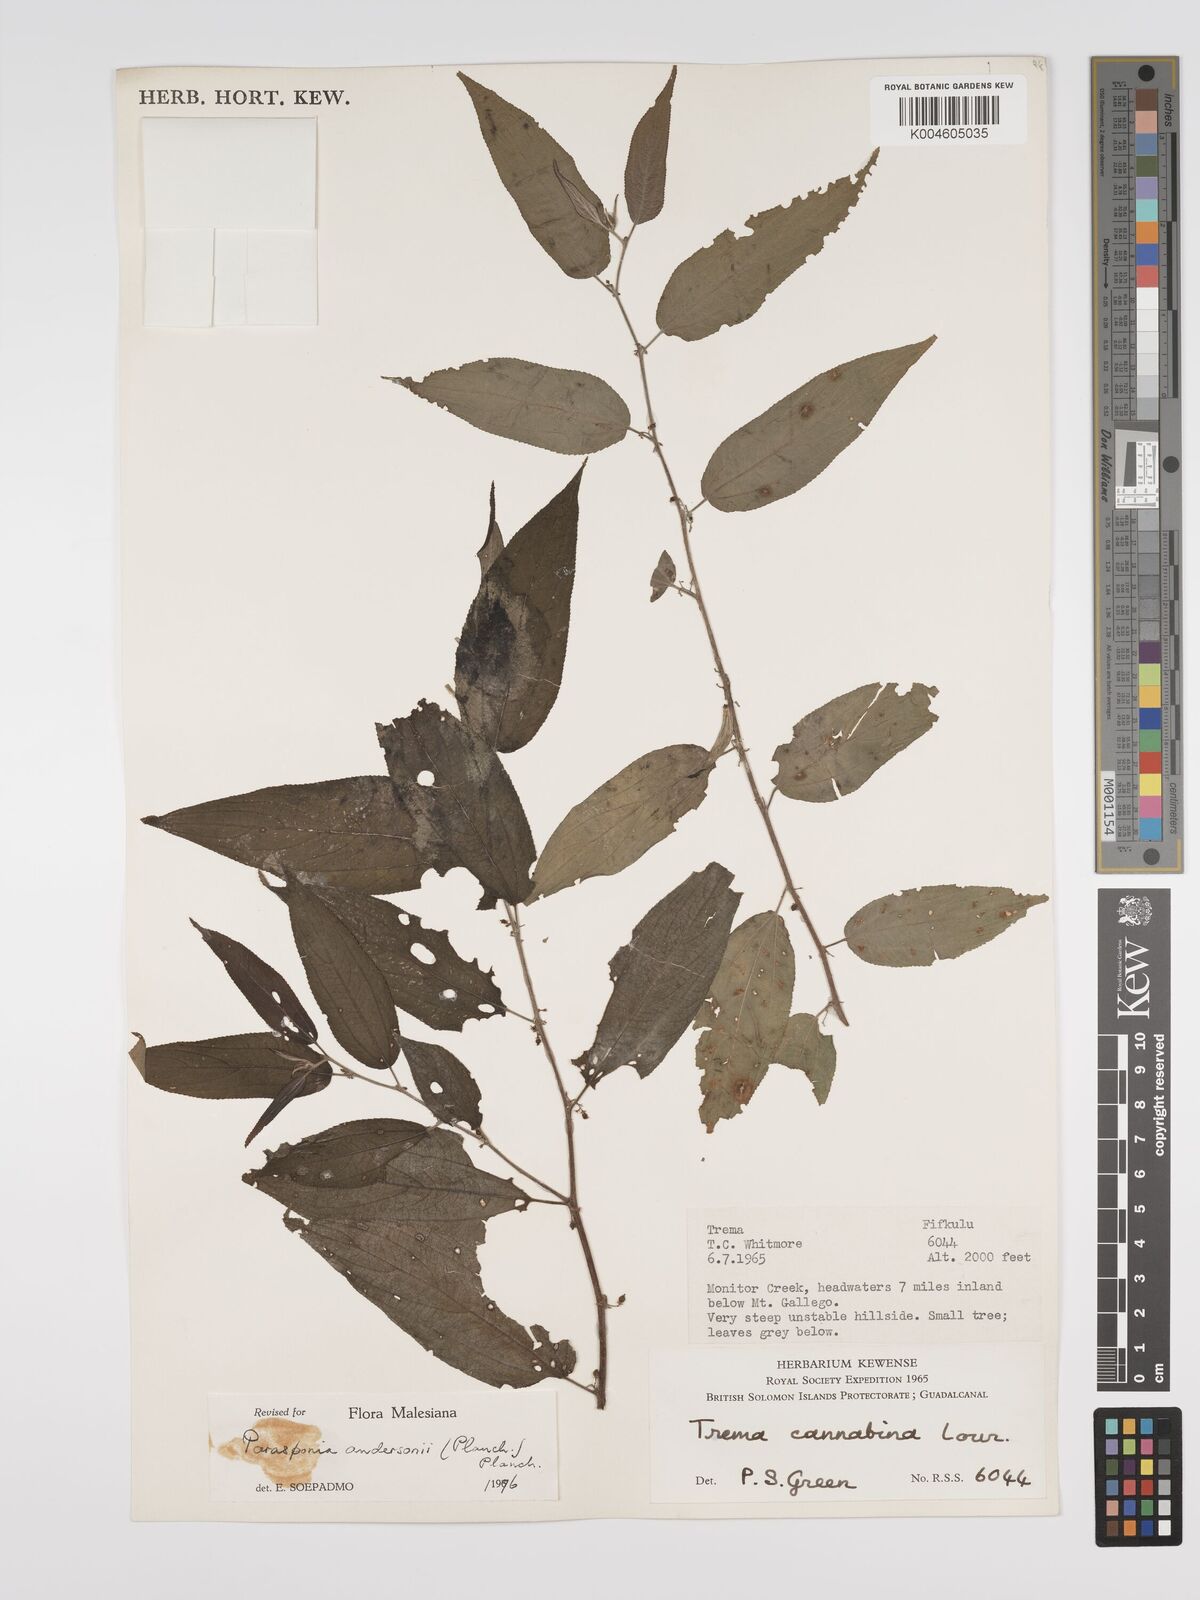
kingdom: Plantae
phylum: Tracheophyta
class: Magnoliopsida
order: Rosales
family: Cannabaceae
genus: Trema
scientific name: Trema andersonii
